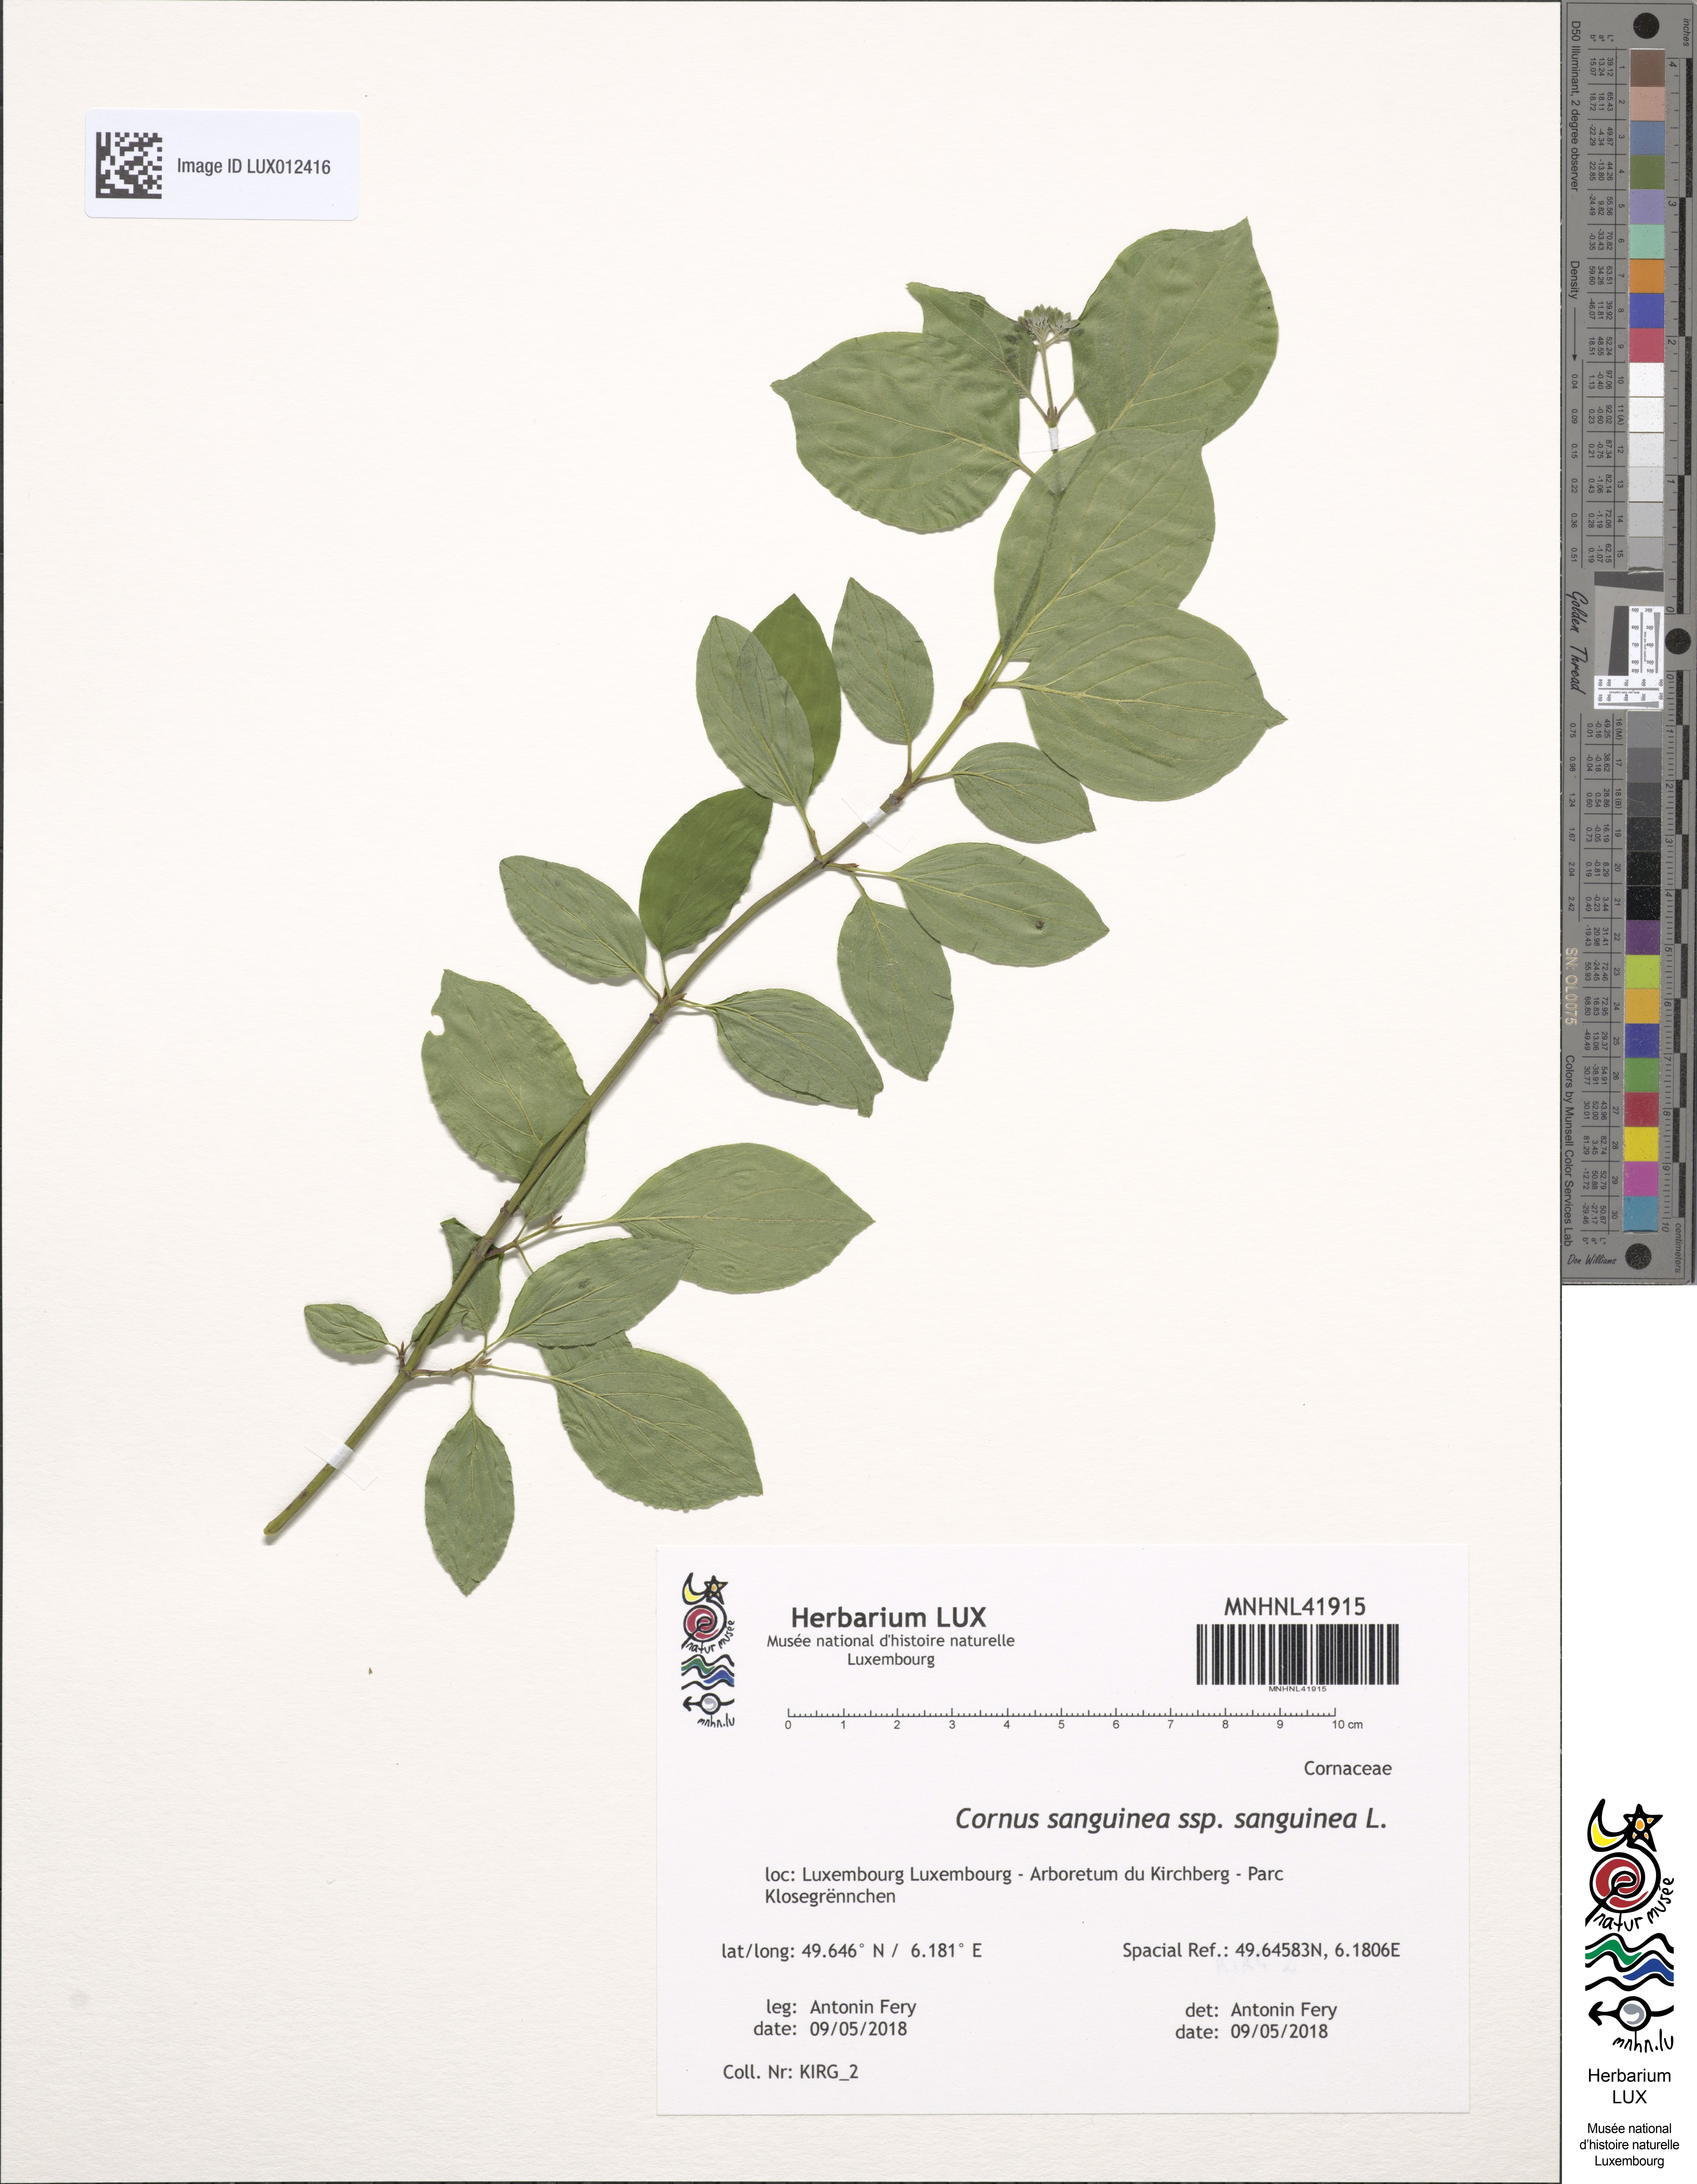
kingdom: Plantae
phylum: Tracheophyta
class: Magnoliopsida
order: Cornales
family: Cornaceae
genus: Cornus
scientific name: Cornus sanguinea
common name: Dogwood
